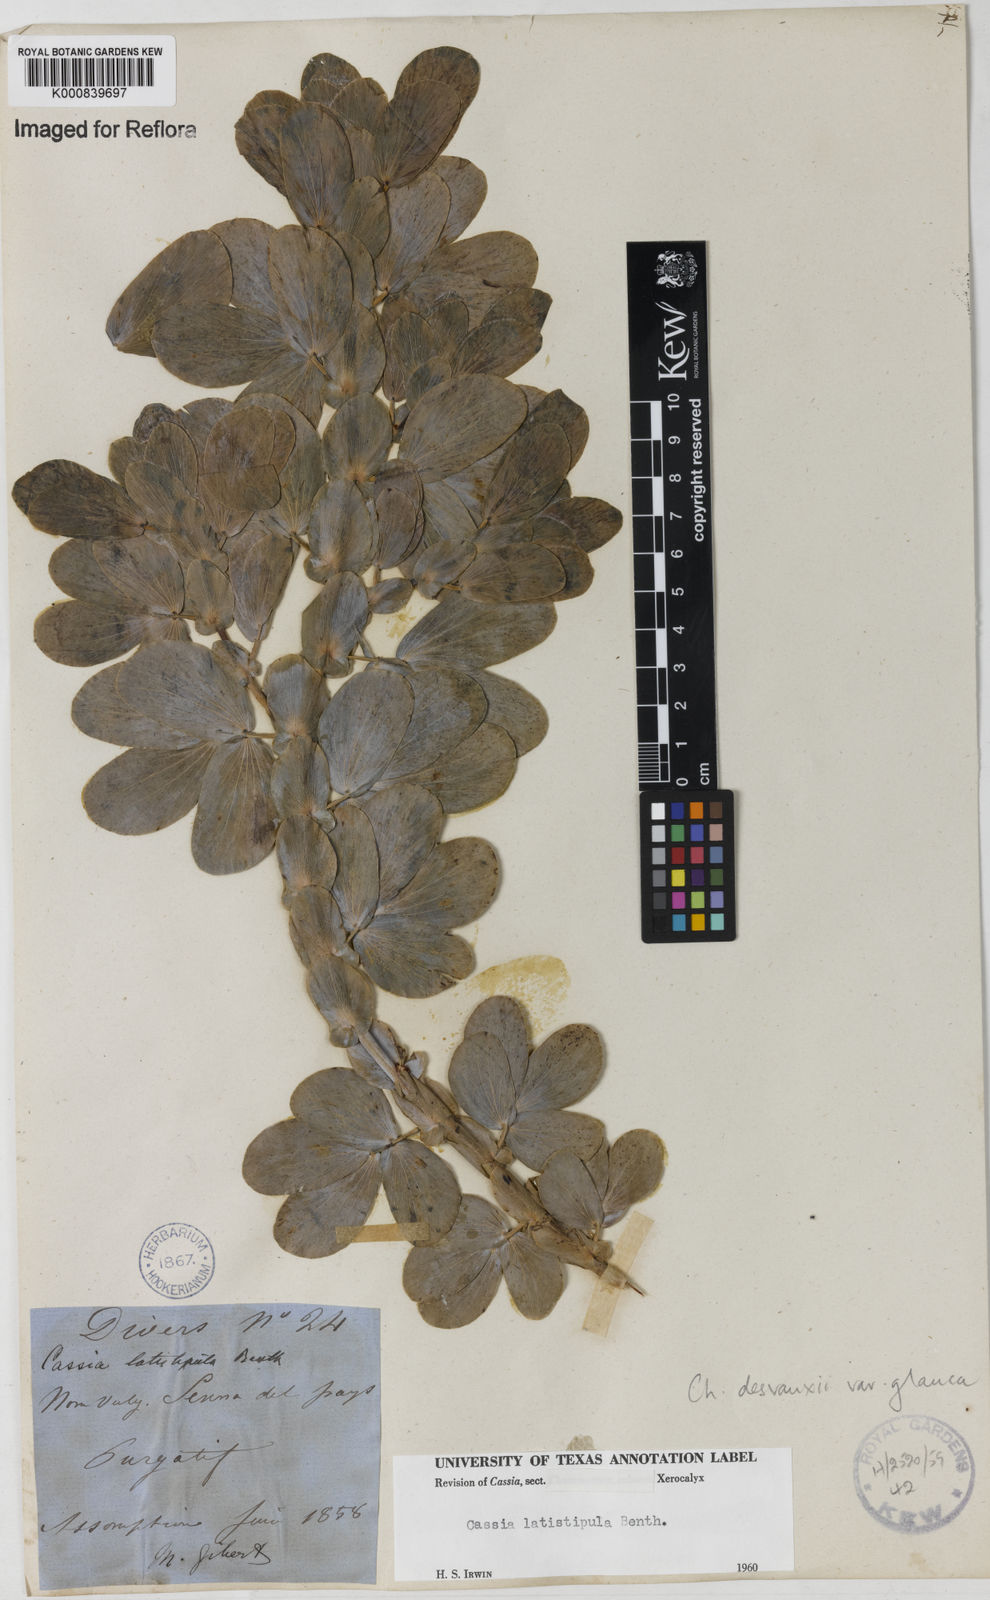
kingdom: Plantae
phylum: Tracheophyta
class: Magnoliopsida
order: Fabales
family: Fabaceae
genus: Chamaecrista
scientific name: Chamaecrista desvauxii
